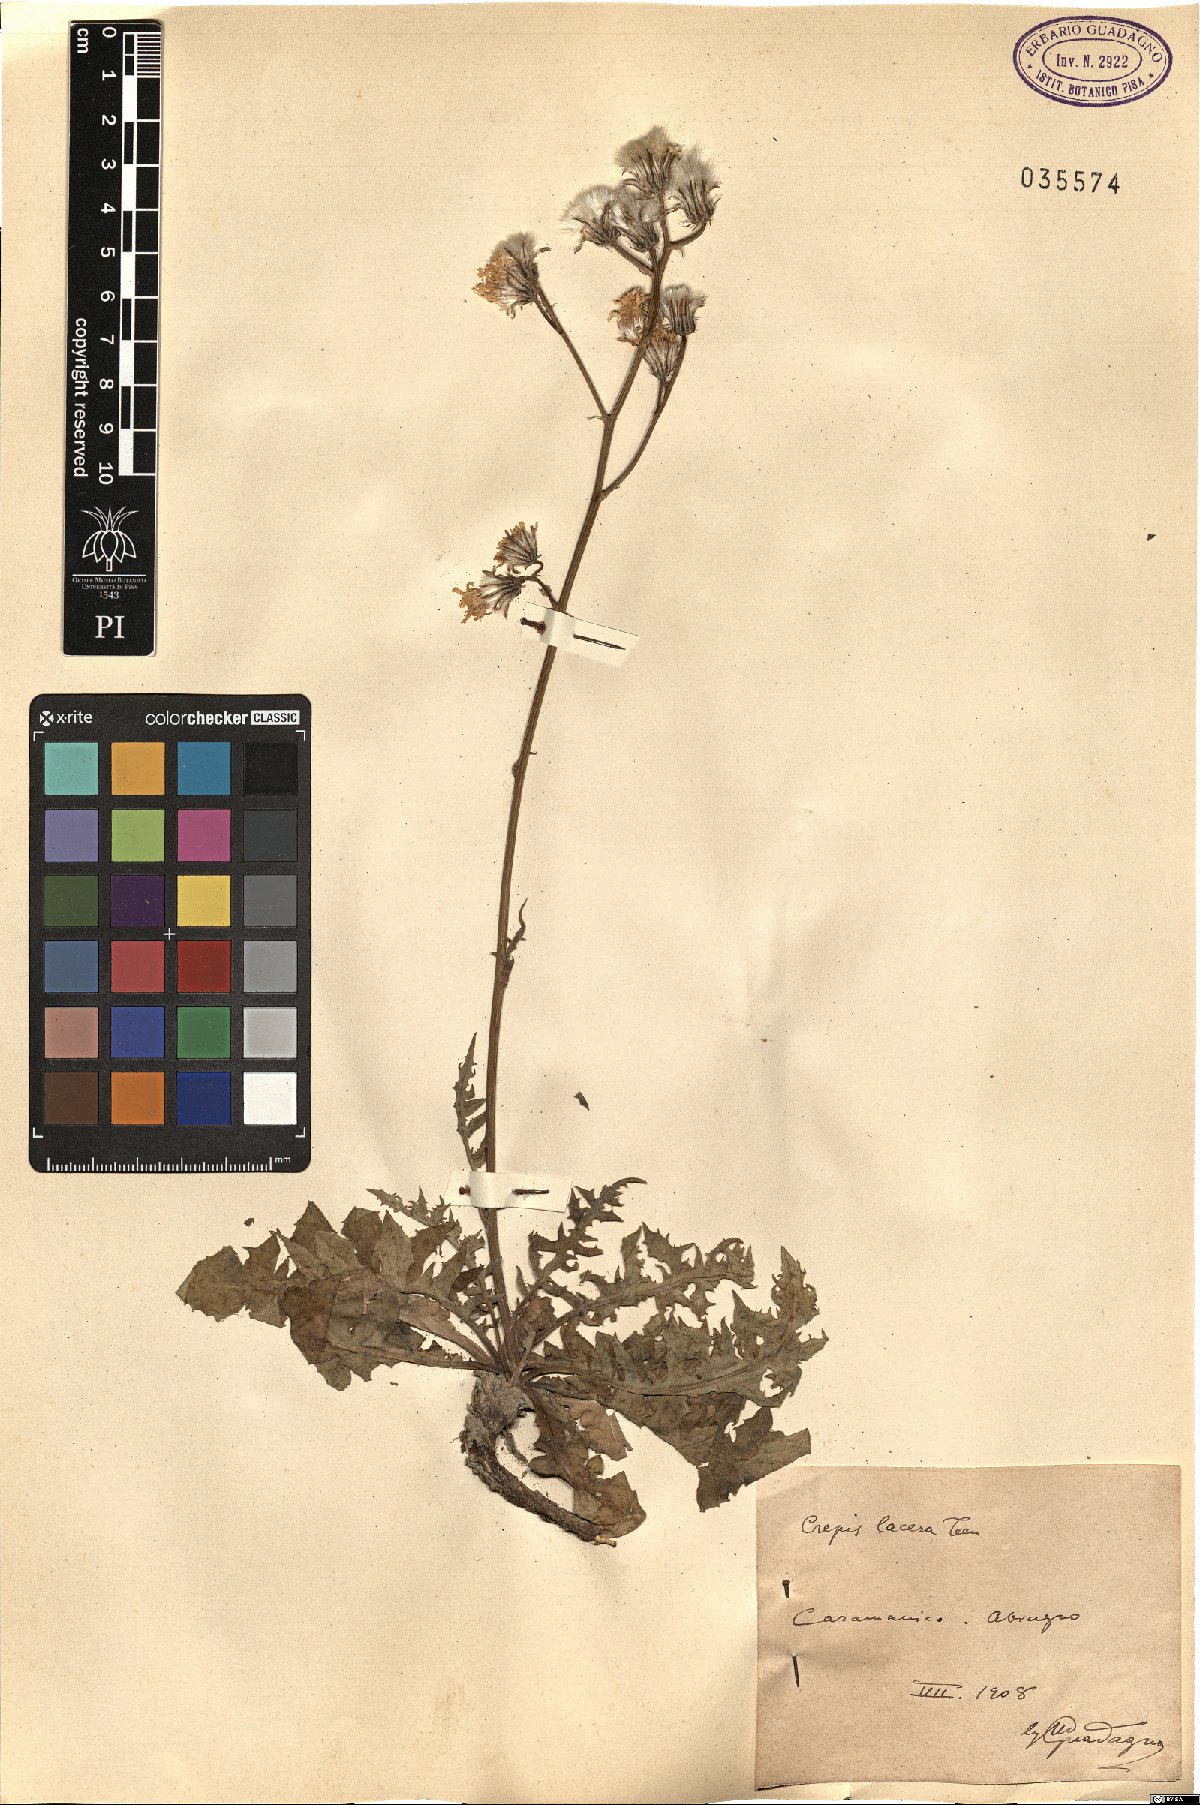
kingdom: Plantae
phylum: Tracheophyta
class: Magnoliopsida
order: Asterales
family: Asteraceae
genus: Crepis
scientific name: Crepis lacera
